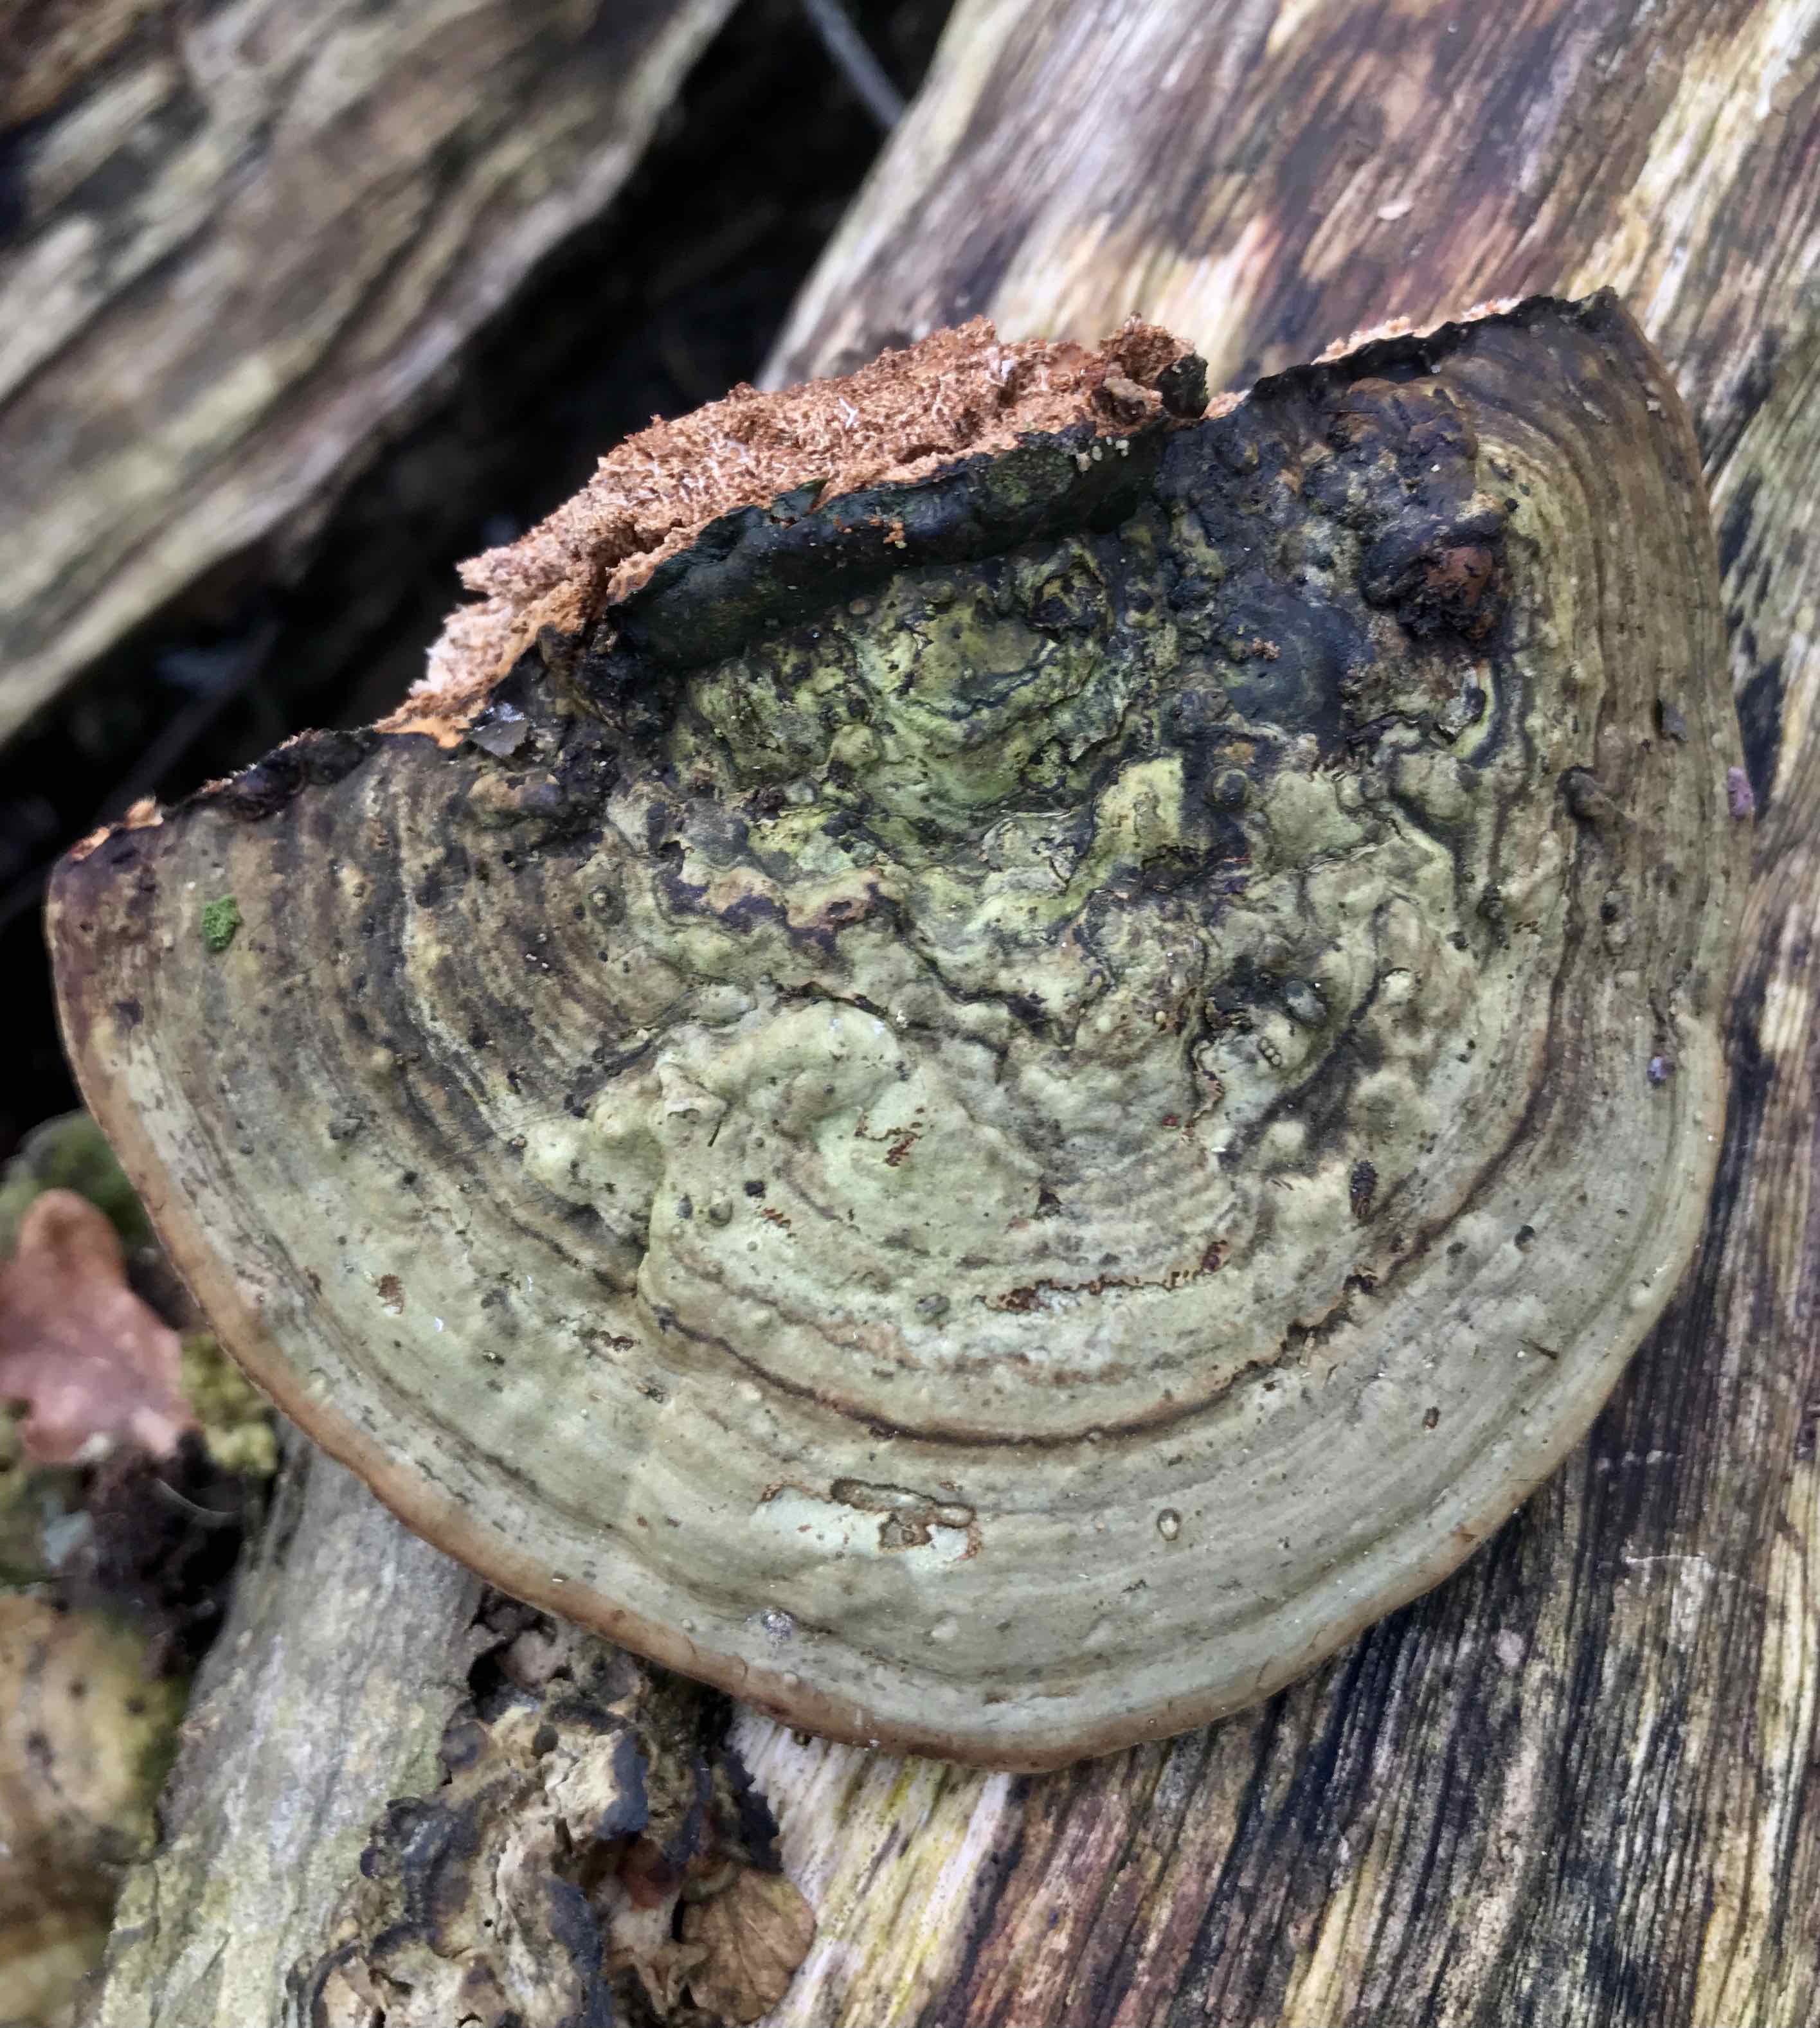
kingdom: Fungi
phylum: Basidiomycota
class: Agaricomycetes
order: Polyporales
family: Polyporaceae
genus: Fomes
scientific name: Fomes fomentarius
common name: tøndersvamp
